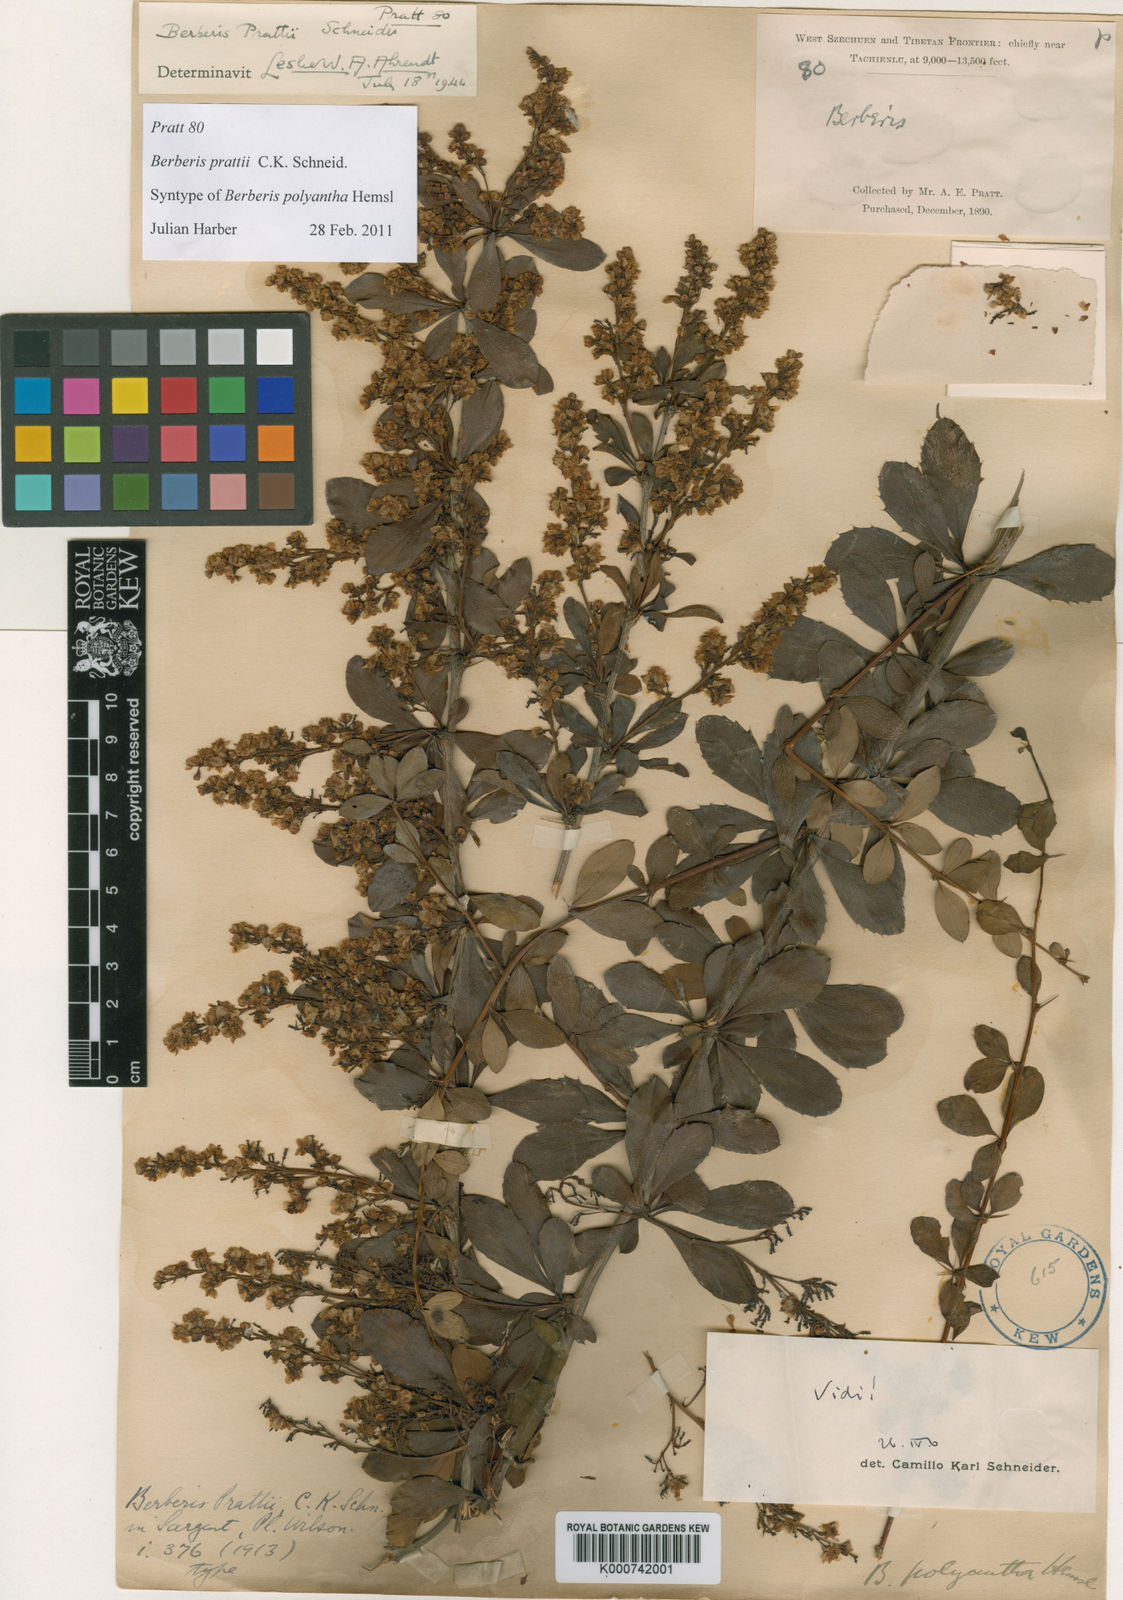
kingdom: Plantae
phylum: Tracheophyta
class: Magnoliopsida
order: Ranunculales
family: Berberidaceae
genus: Berberis
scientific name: Berberis prattii
